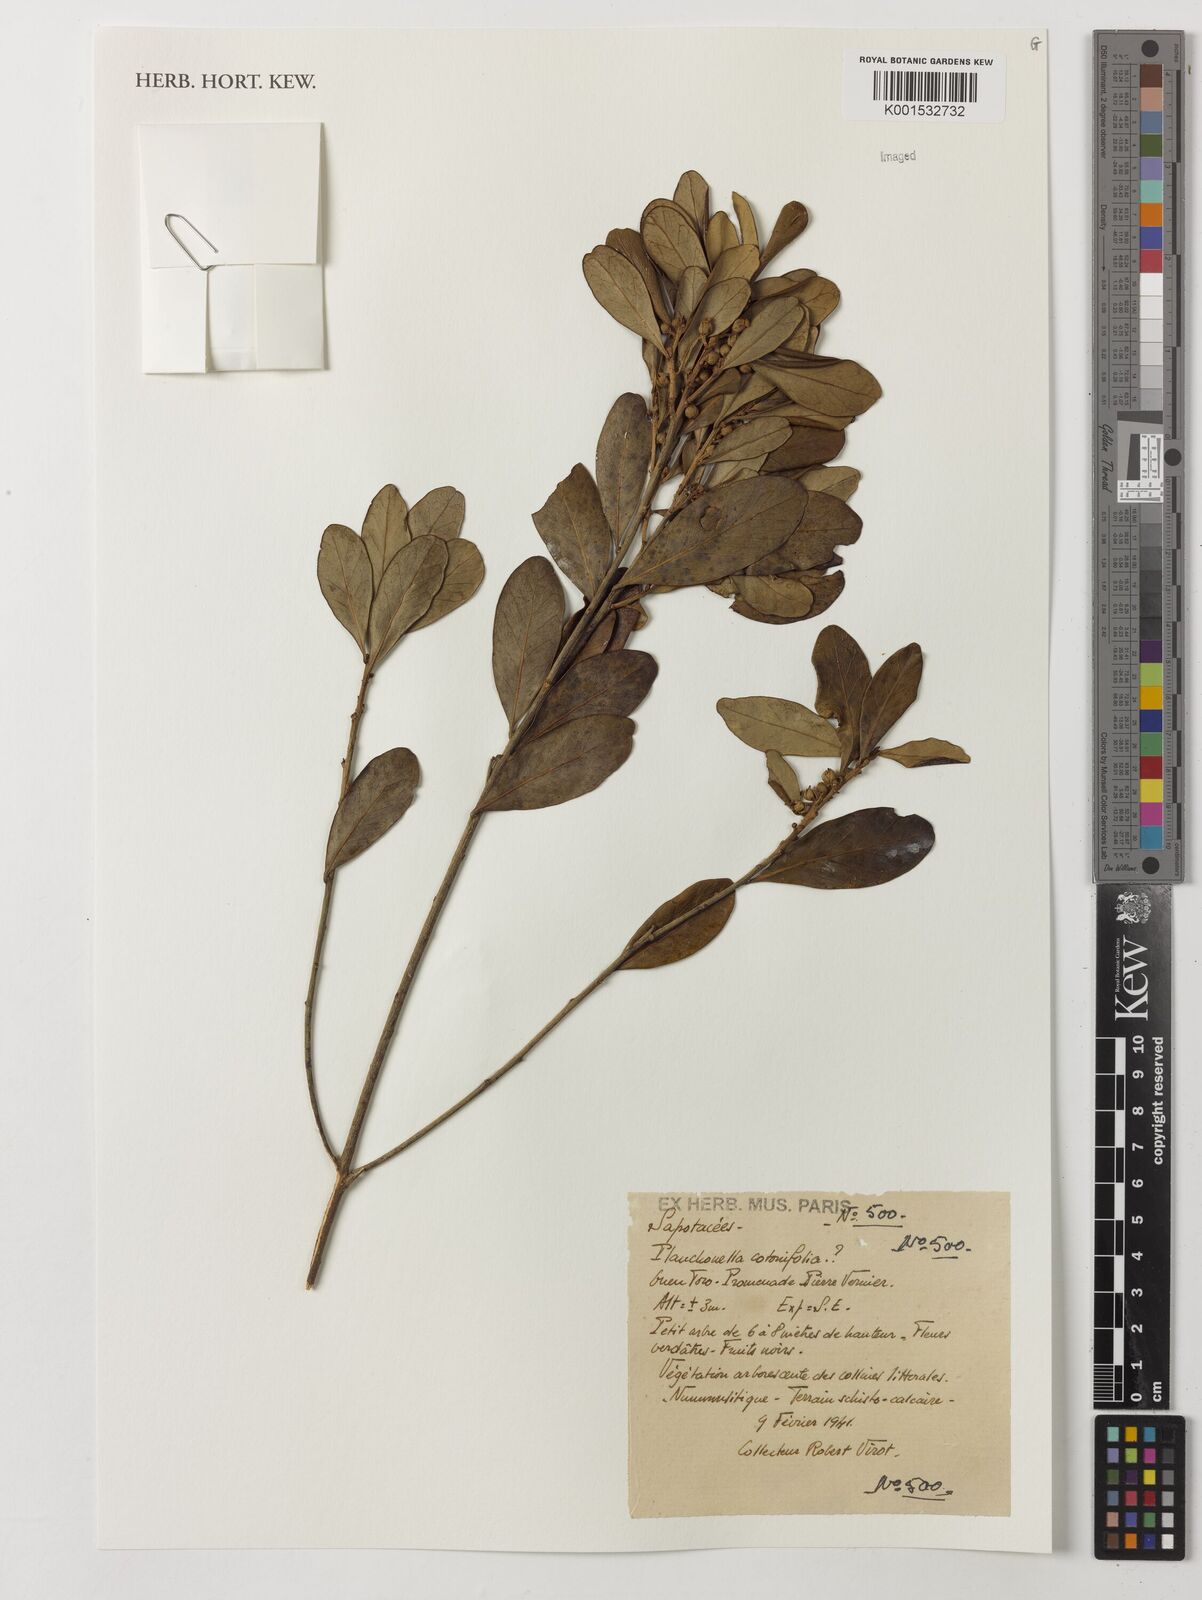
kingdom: Plantae
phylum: Tracheophyta
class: Magnoliopsida
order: Ericales
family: Sapotaceae
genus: Planchonella
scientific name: Planchonella cotinifolia
